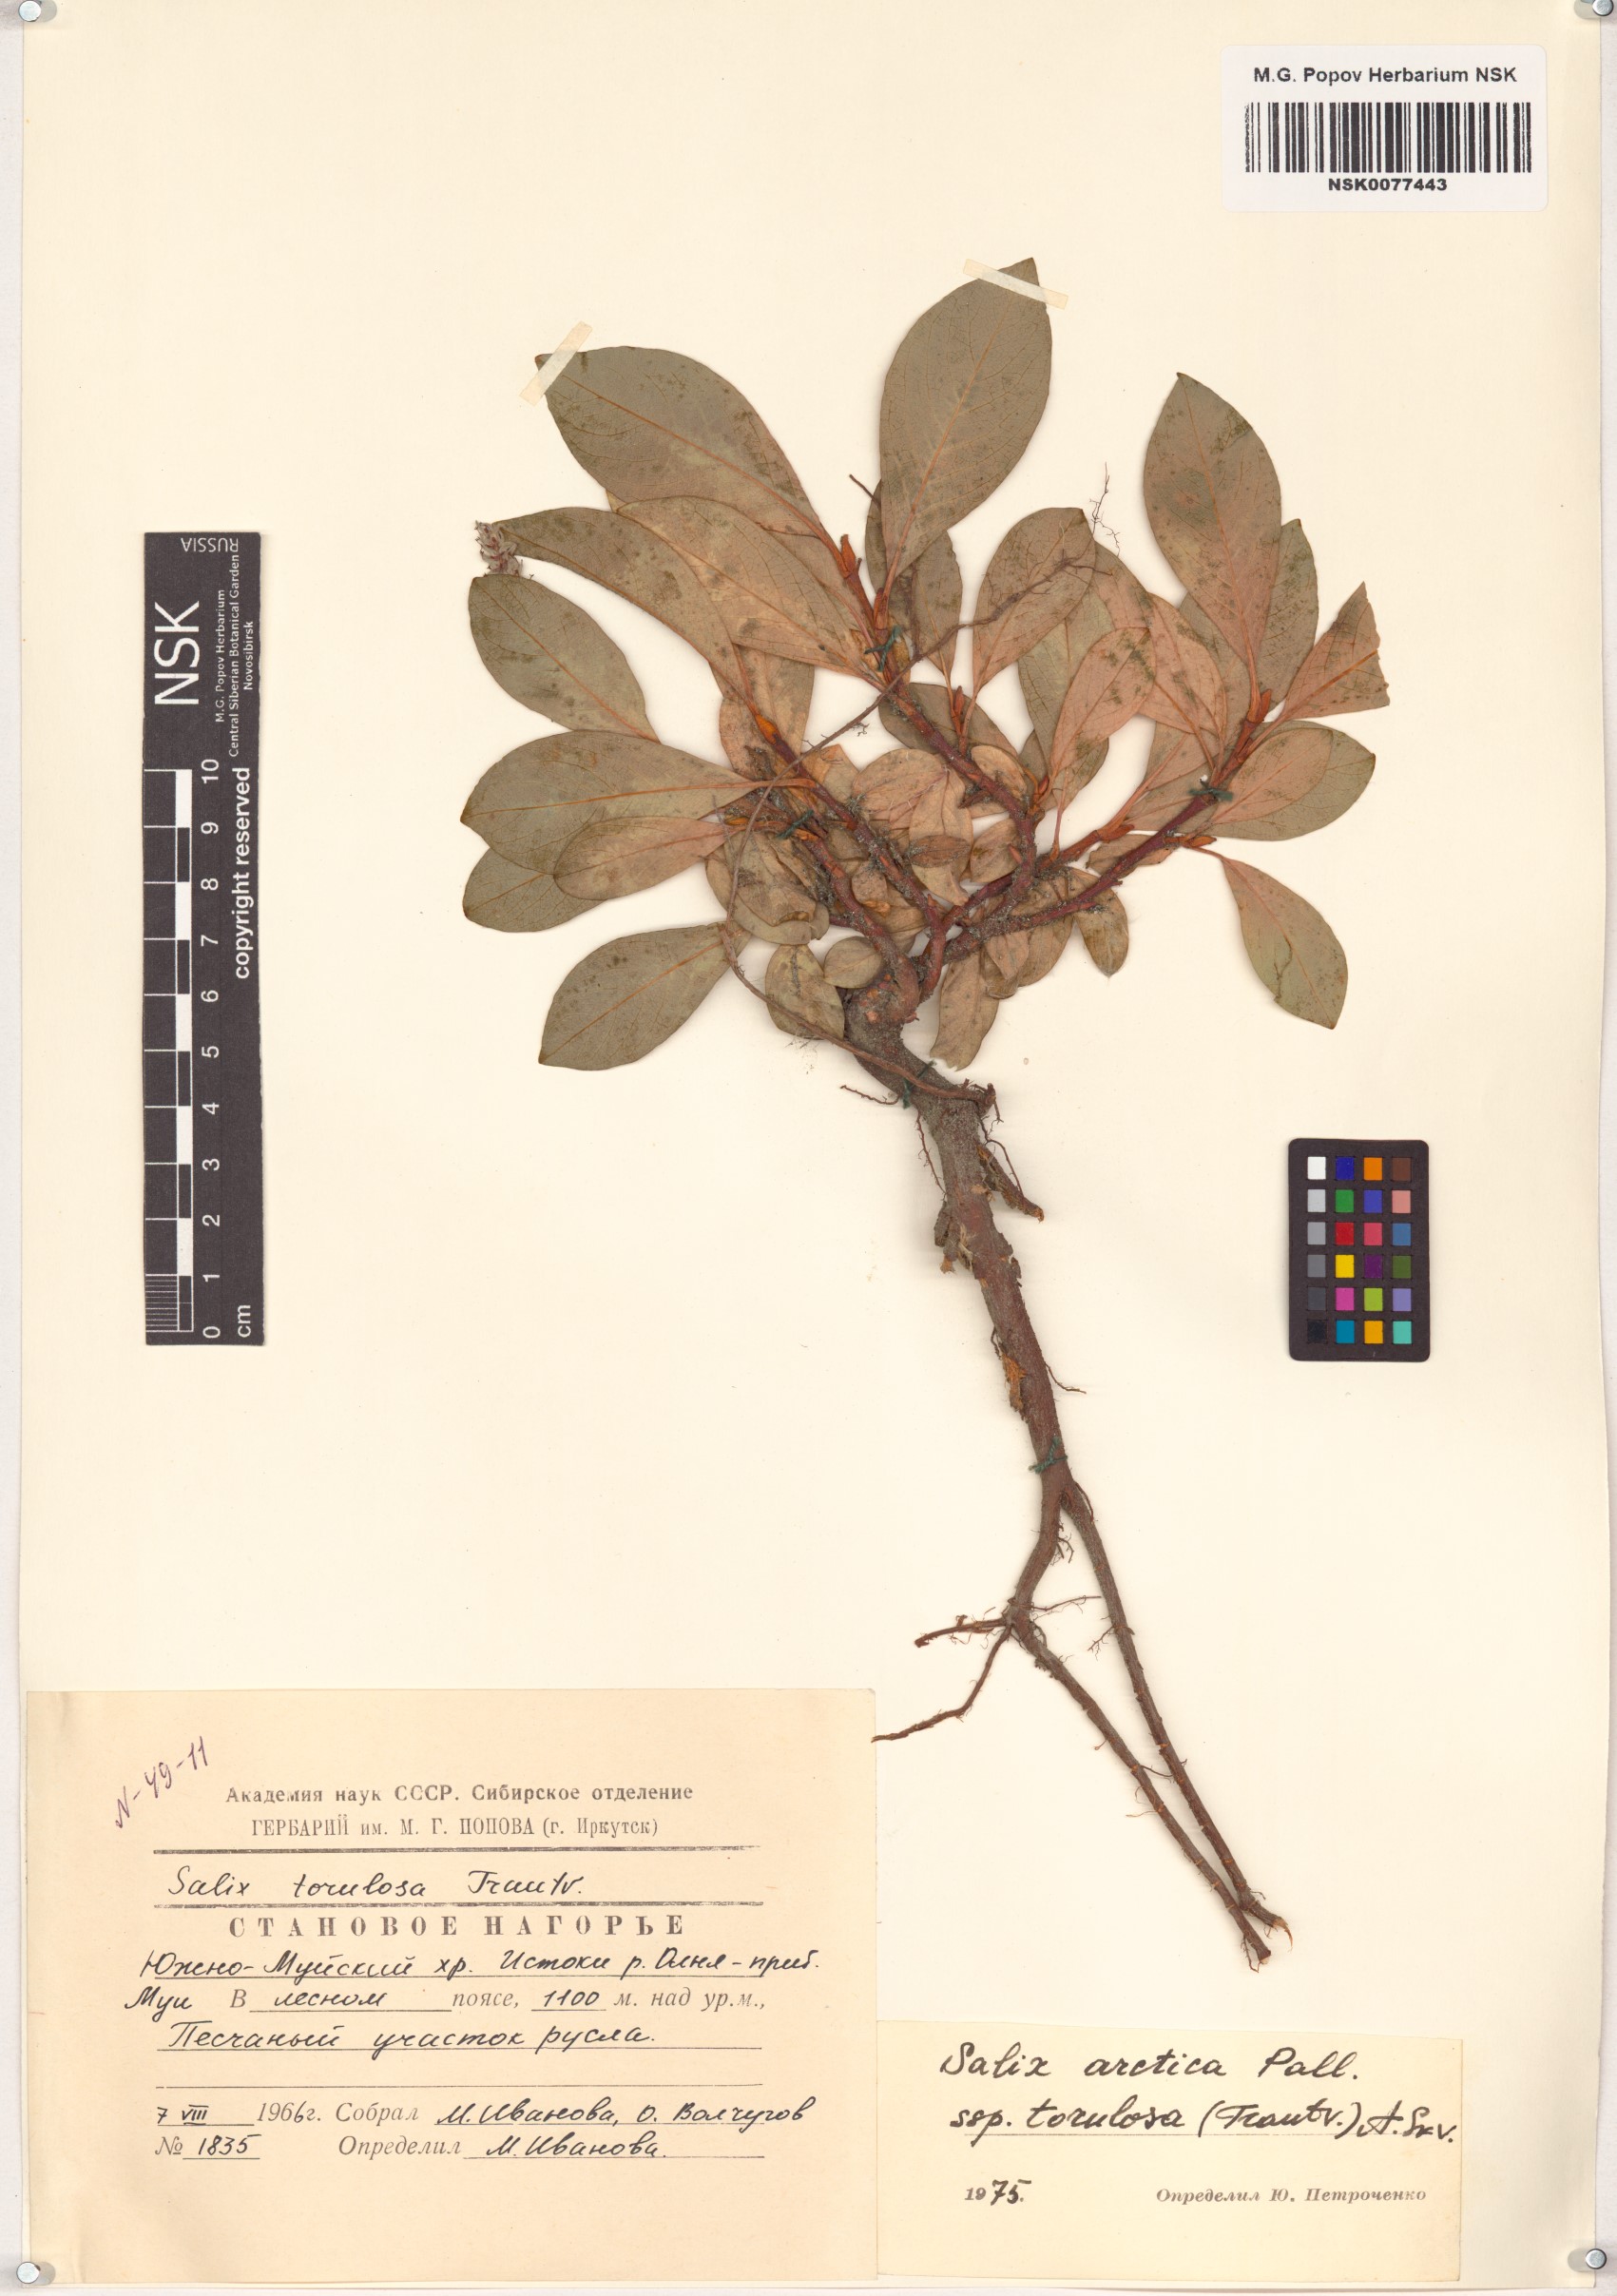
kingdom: Plantae
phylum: Tracheophyta
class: Magnoliopsida
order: Malpighiales
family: Salicaceae
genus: Salix
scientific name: Salix arctica
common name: Arctic willow
